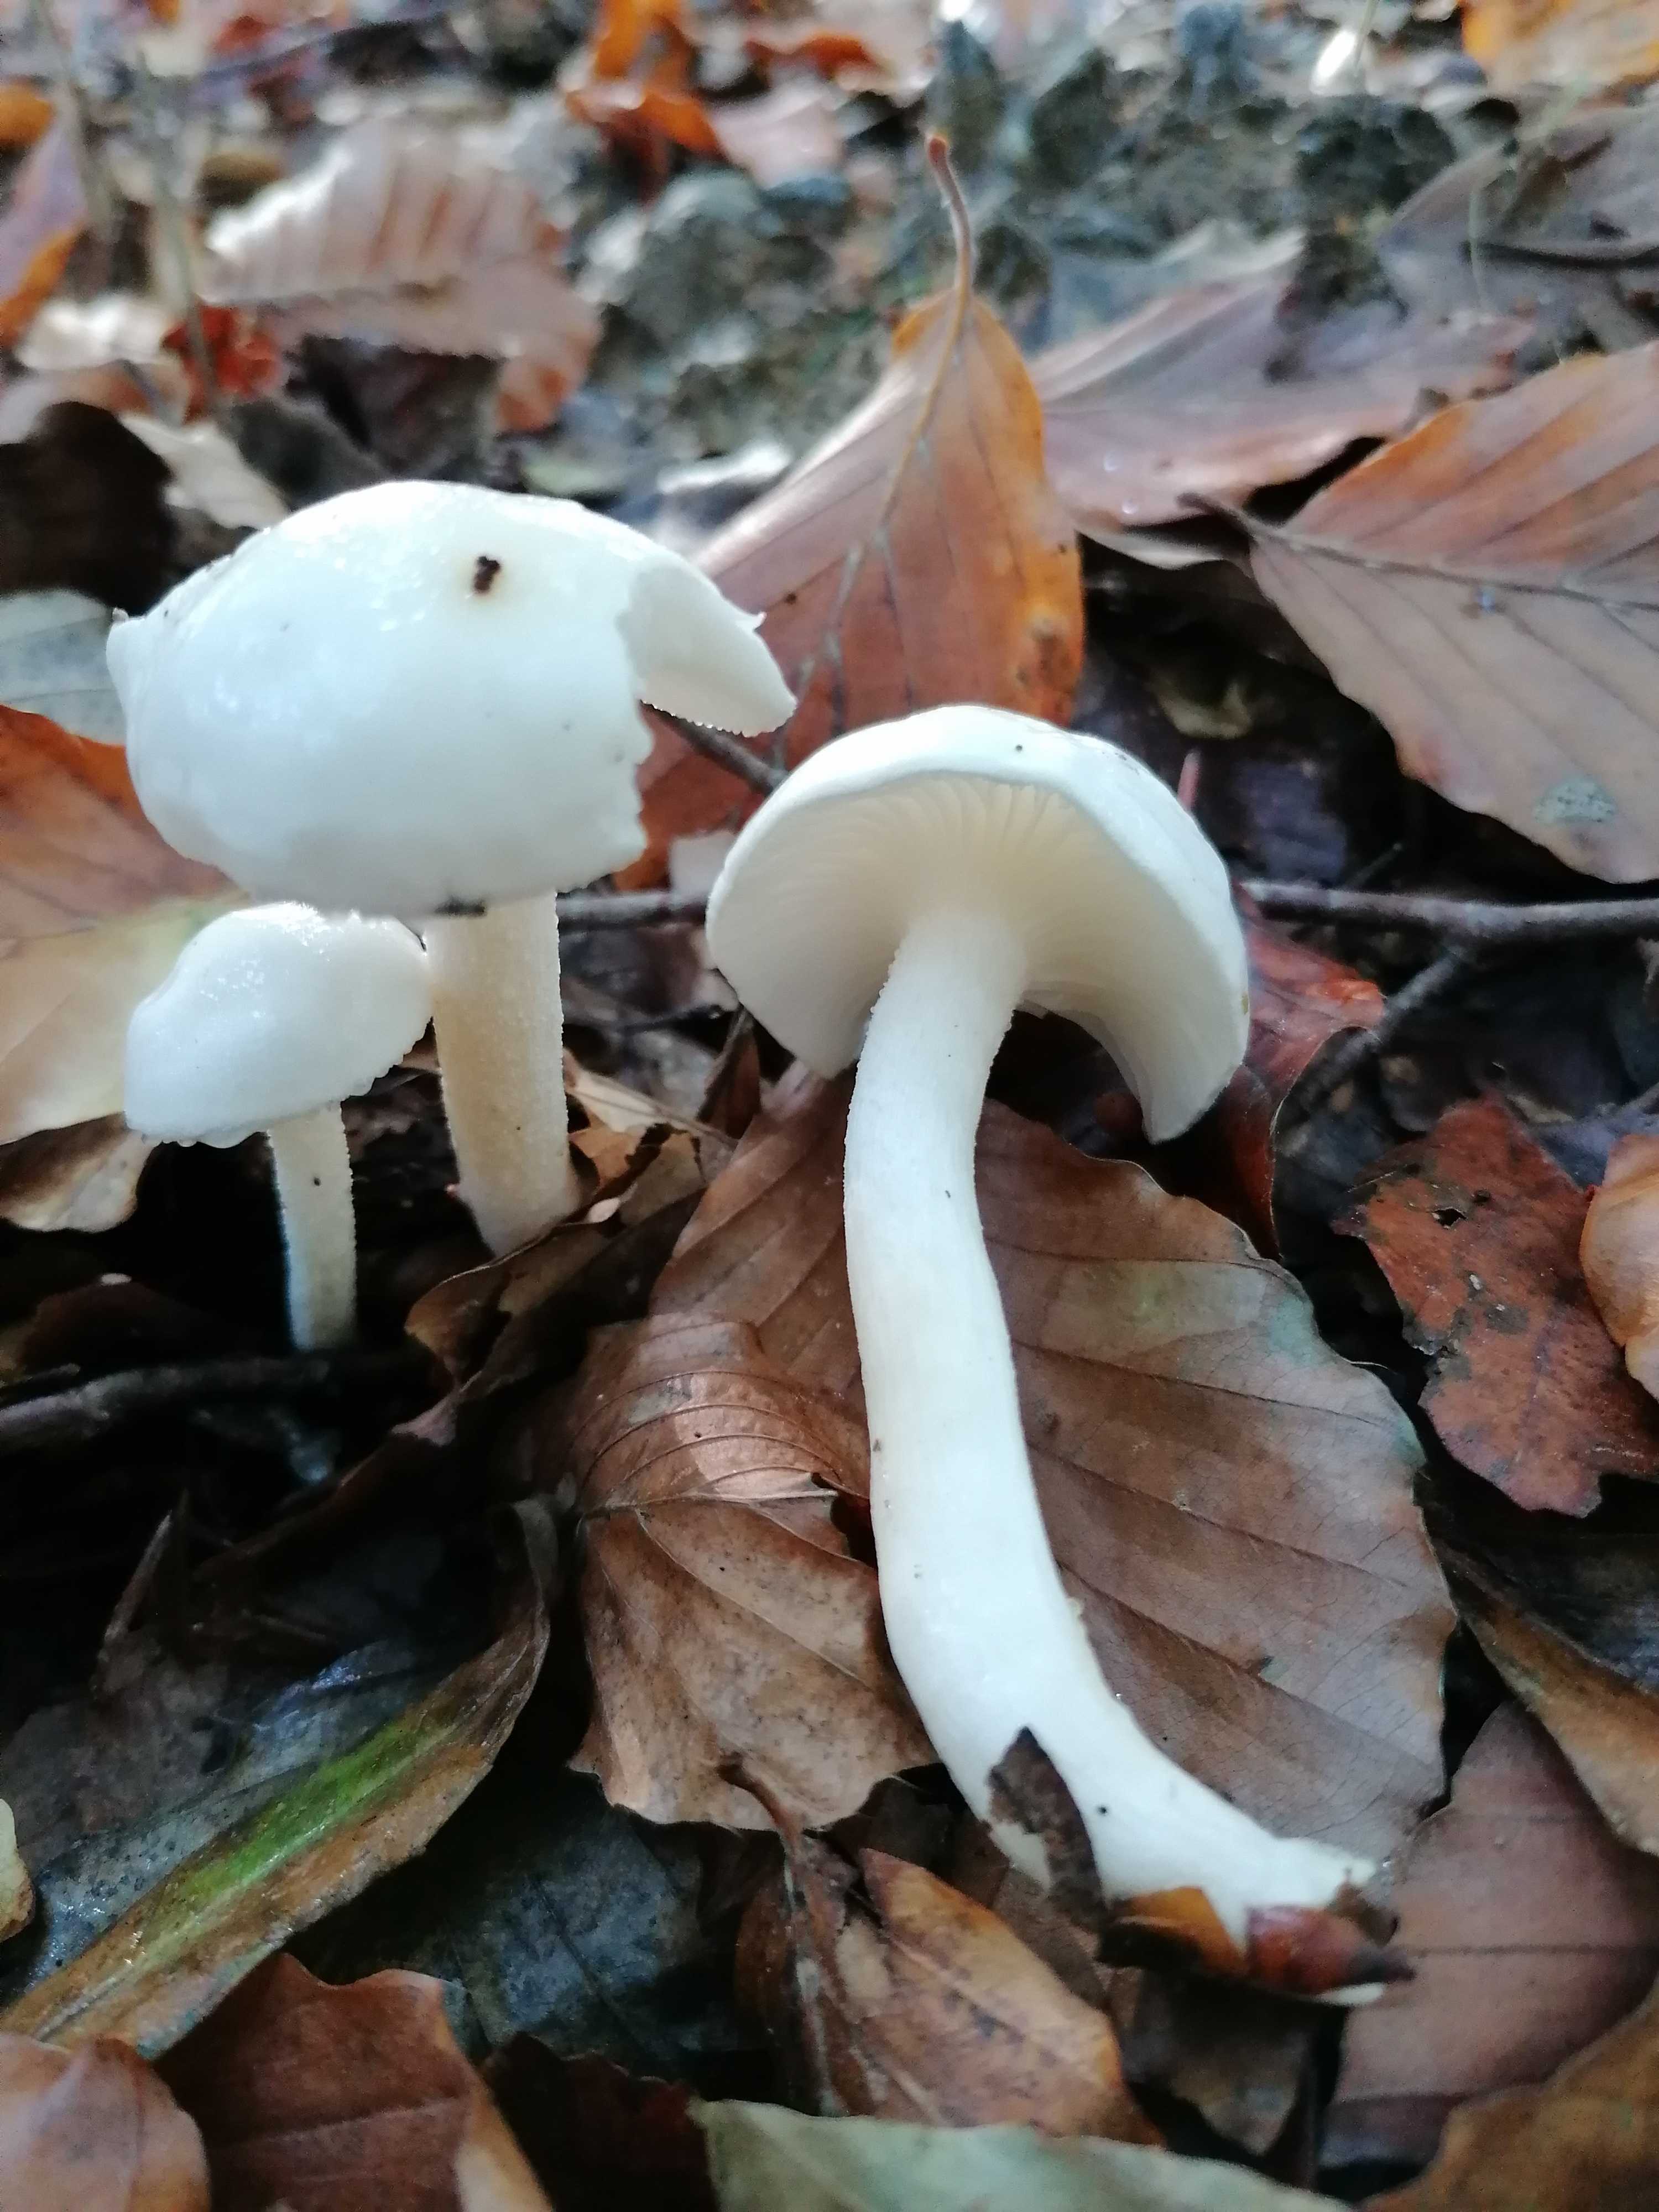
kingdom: Fungi
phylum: Basidiomycota
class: Agaricomycetes
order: Agaricales
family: Hygrophoraceae
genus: Hygrophorus
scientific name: Hygrophorus eburneus
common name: elfenbens-sneglehat
